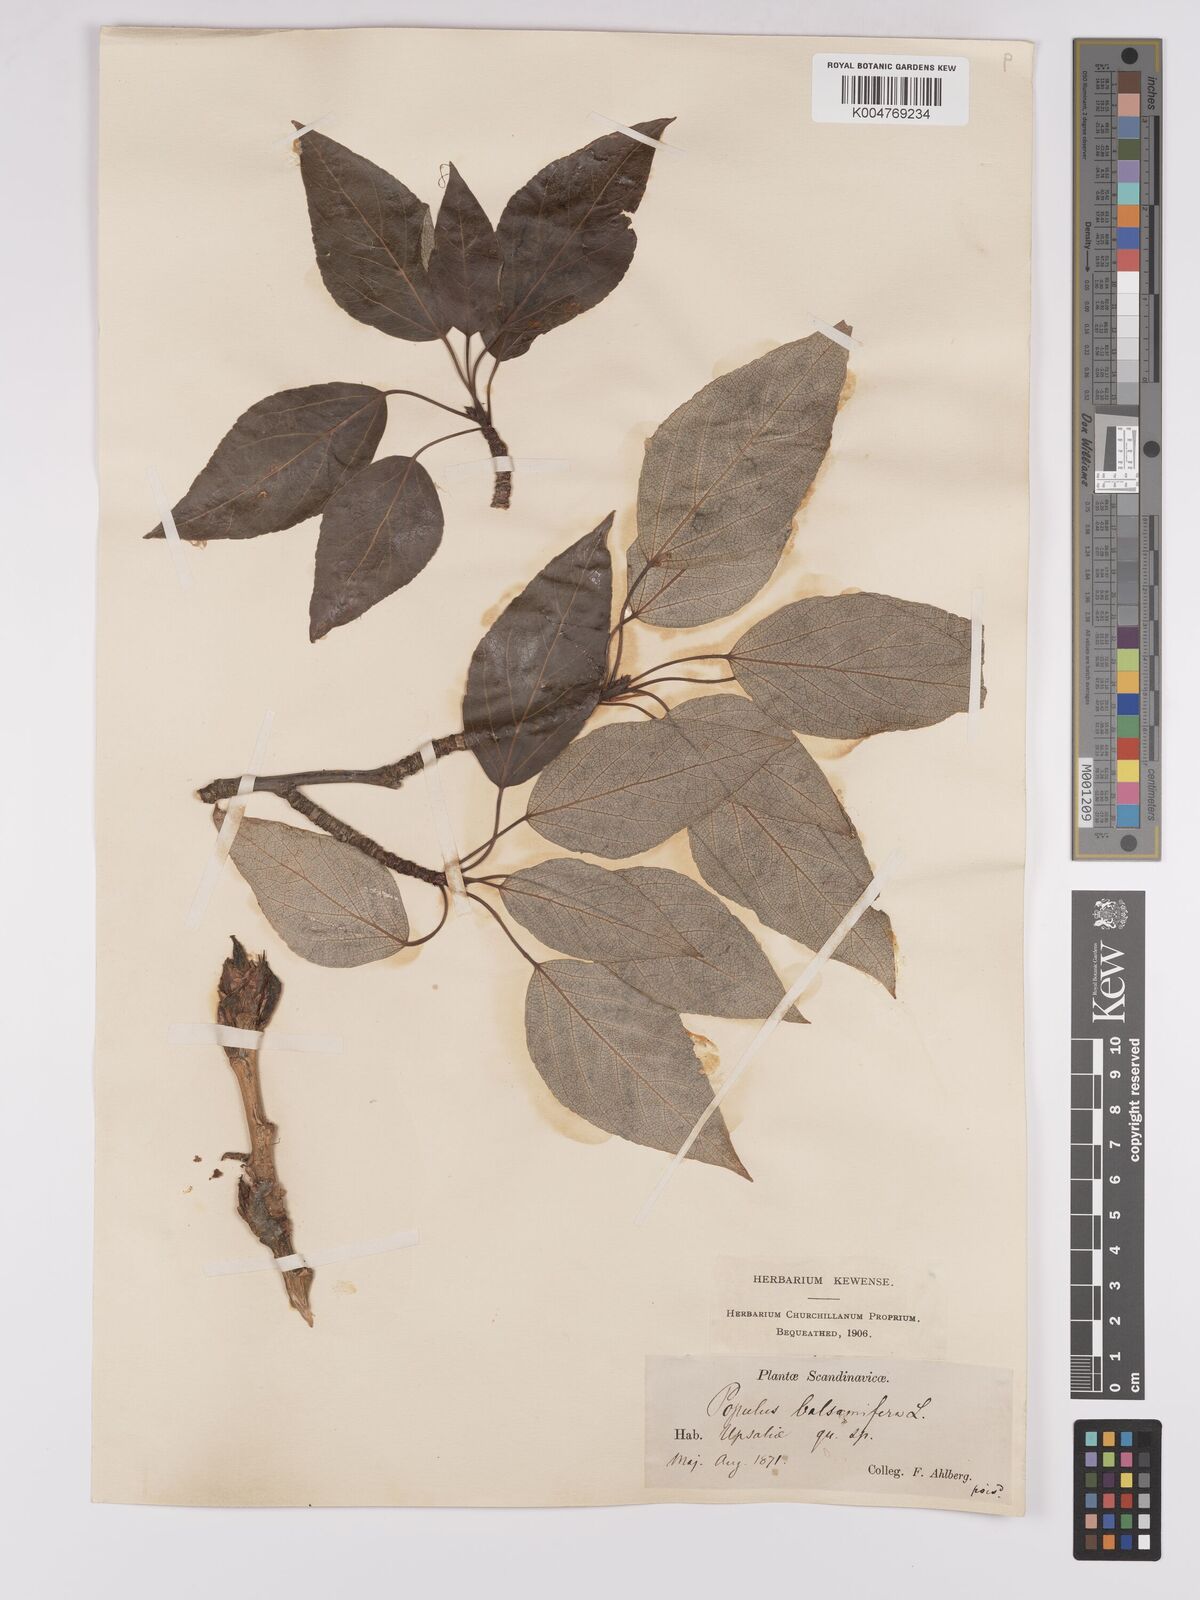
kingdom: Plantae
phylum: Tracheophyta
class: Magnoliopsida
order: Malpighiales
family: Salicaceae
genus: Populus
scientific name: Populus balsamifera
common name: Balsam poplar
